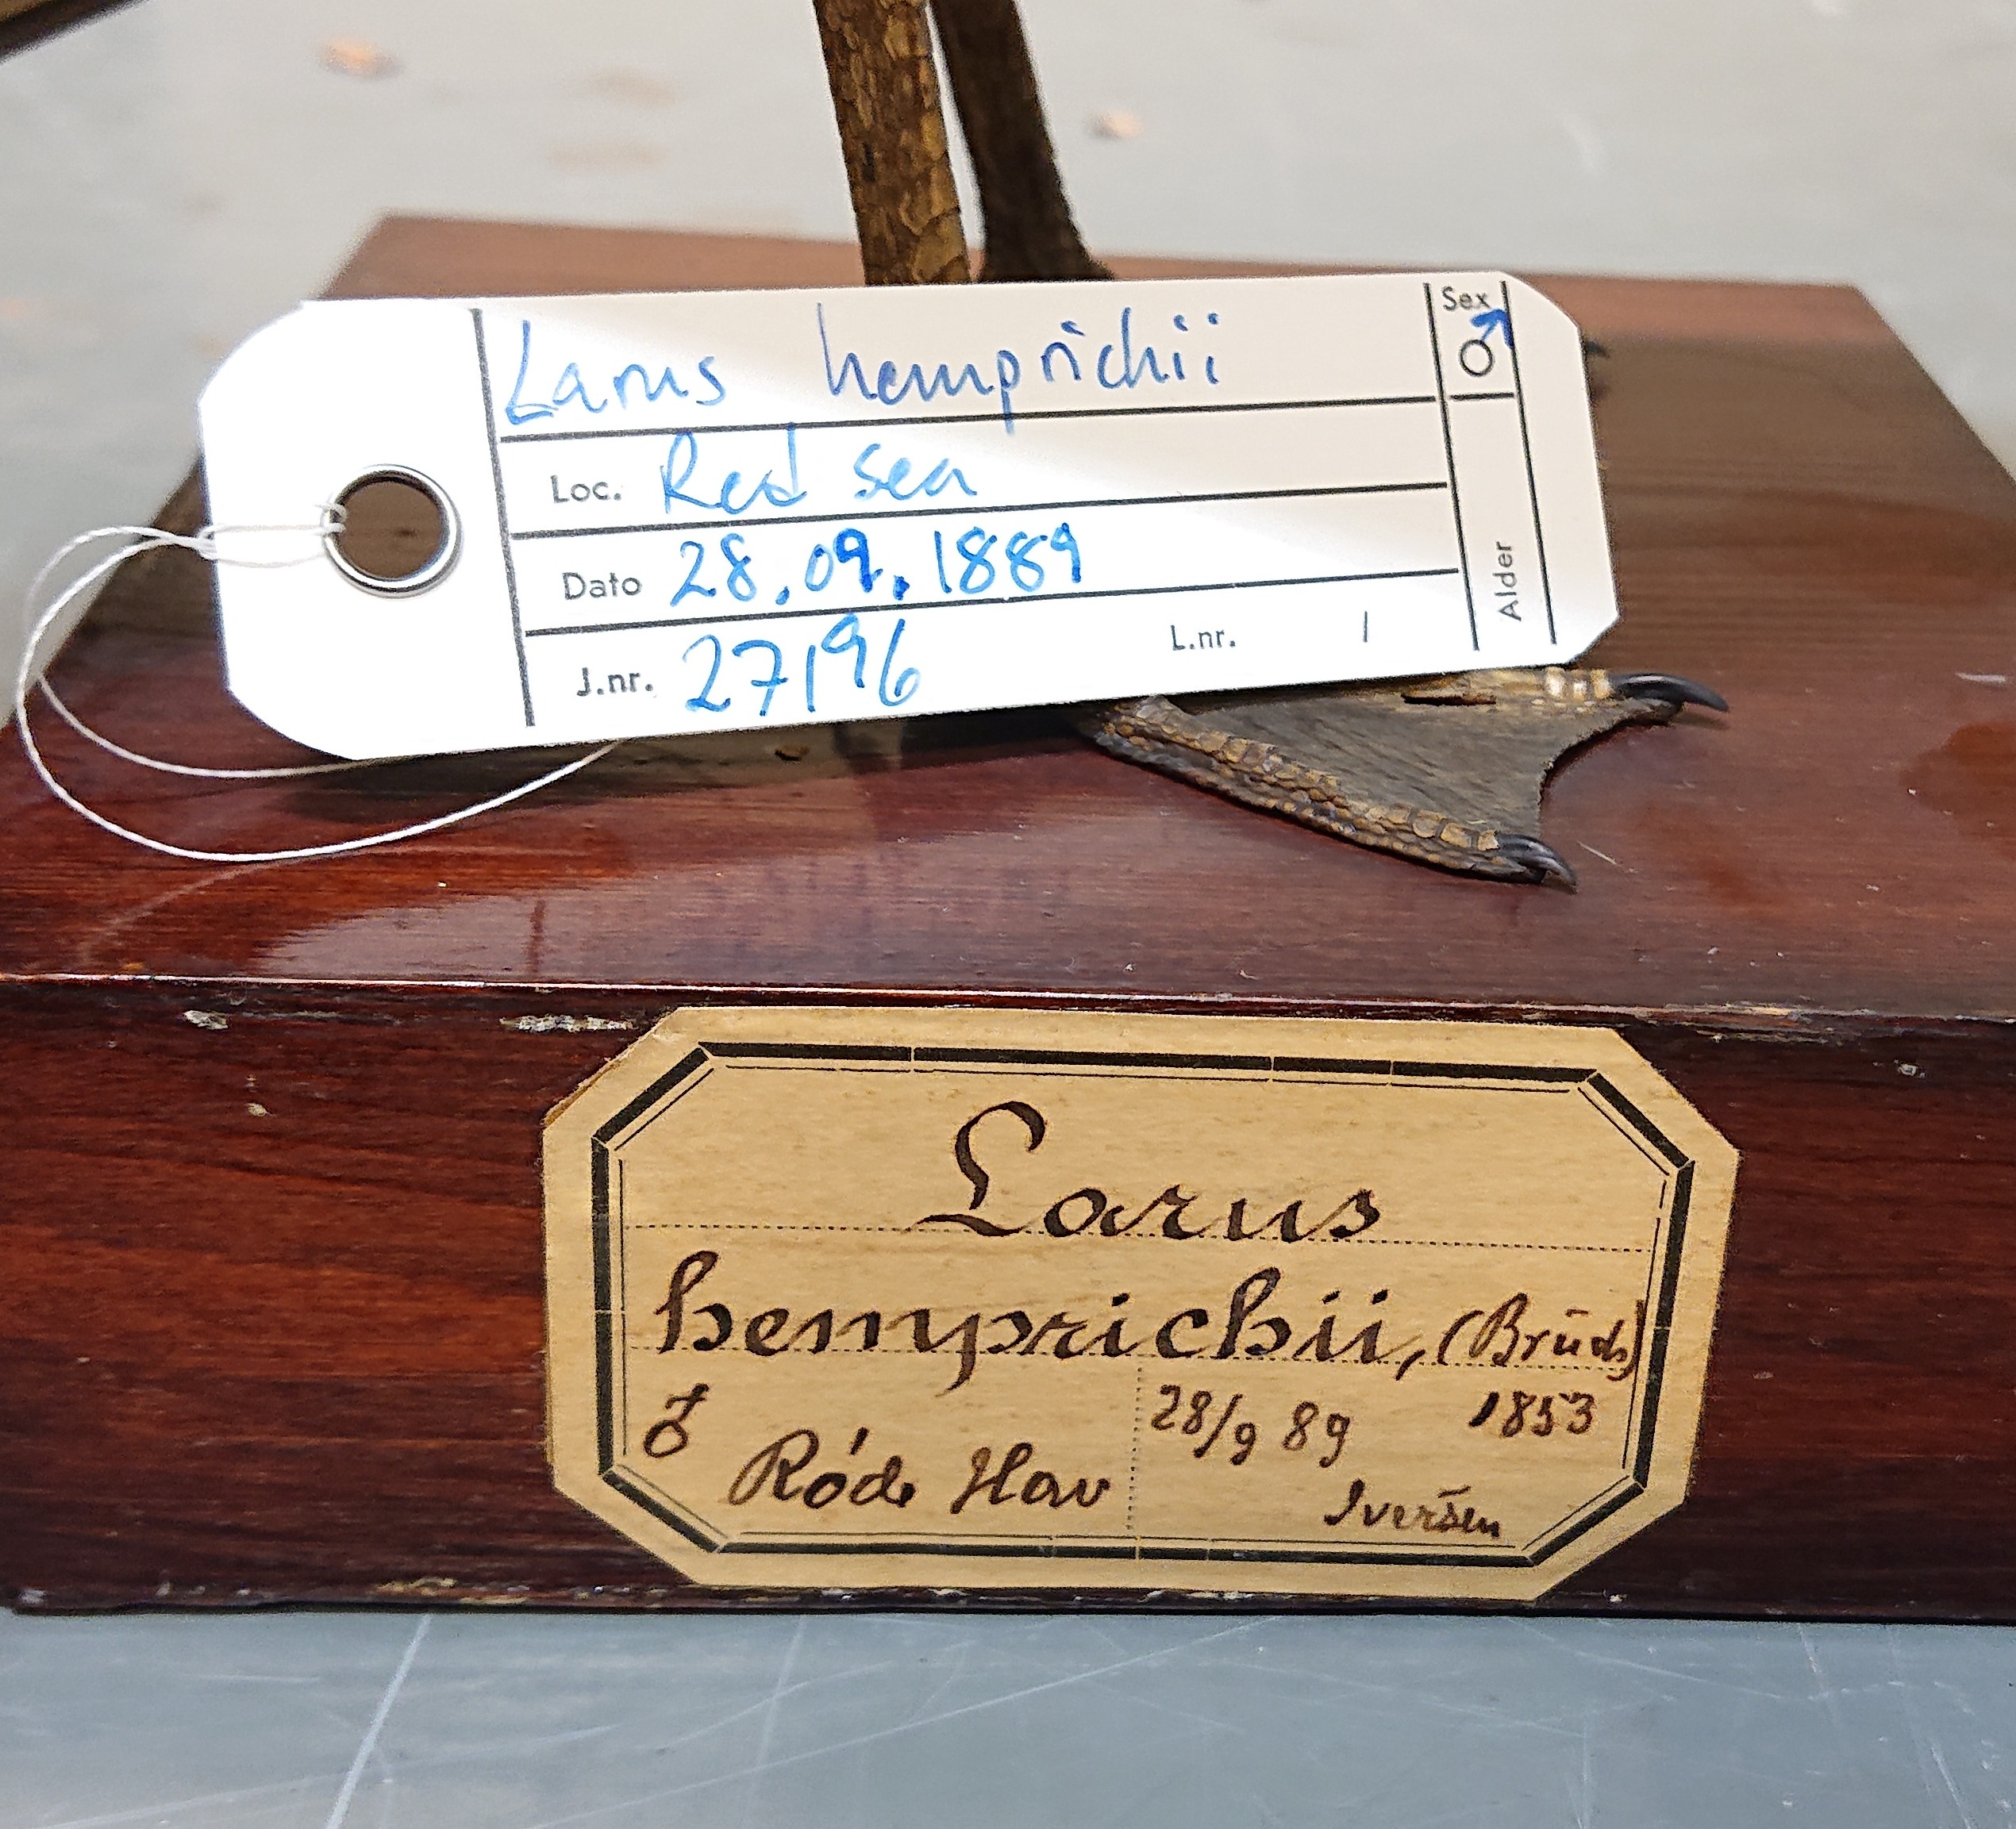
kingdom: Animalia
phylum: Chordata
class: Aves
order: Charadriiformes
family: Laridae
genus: Ichthyaetus
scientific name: Ichthyaetus hemprichii
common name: Sooty gull
